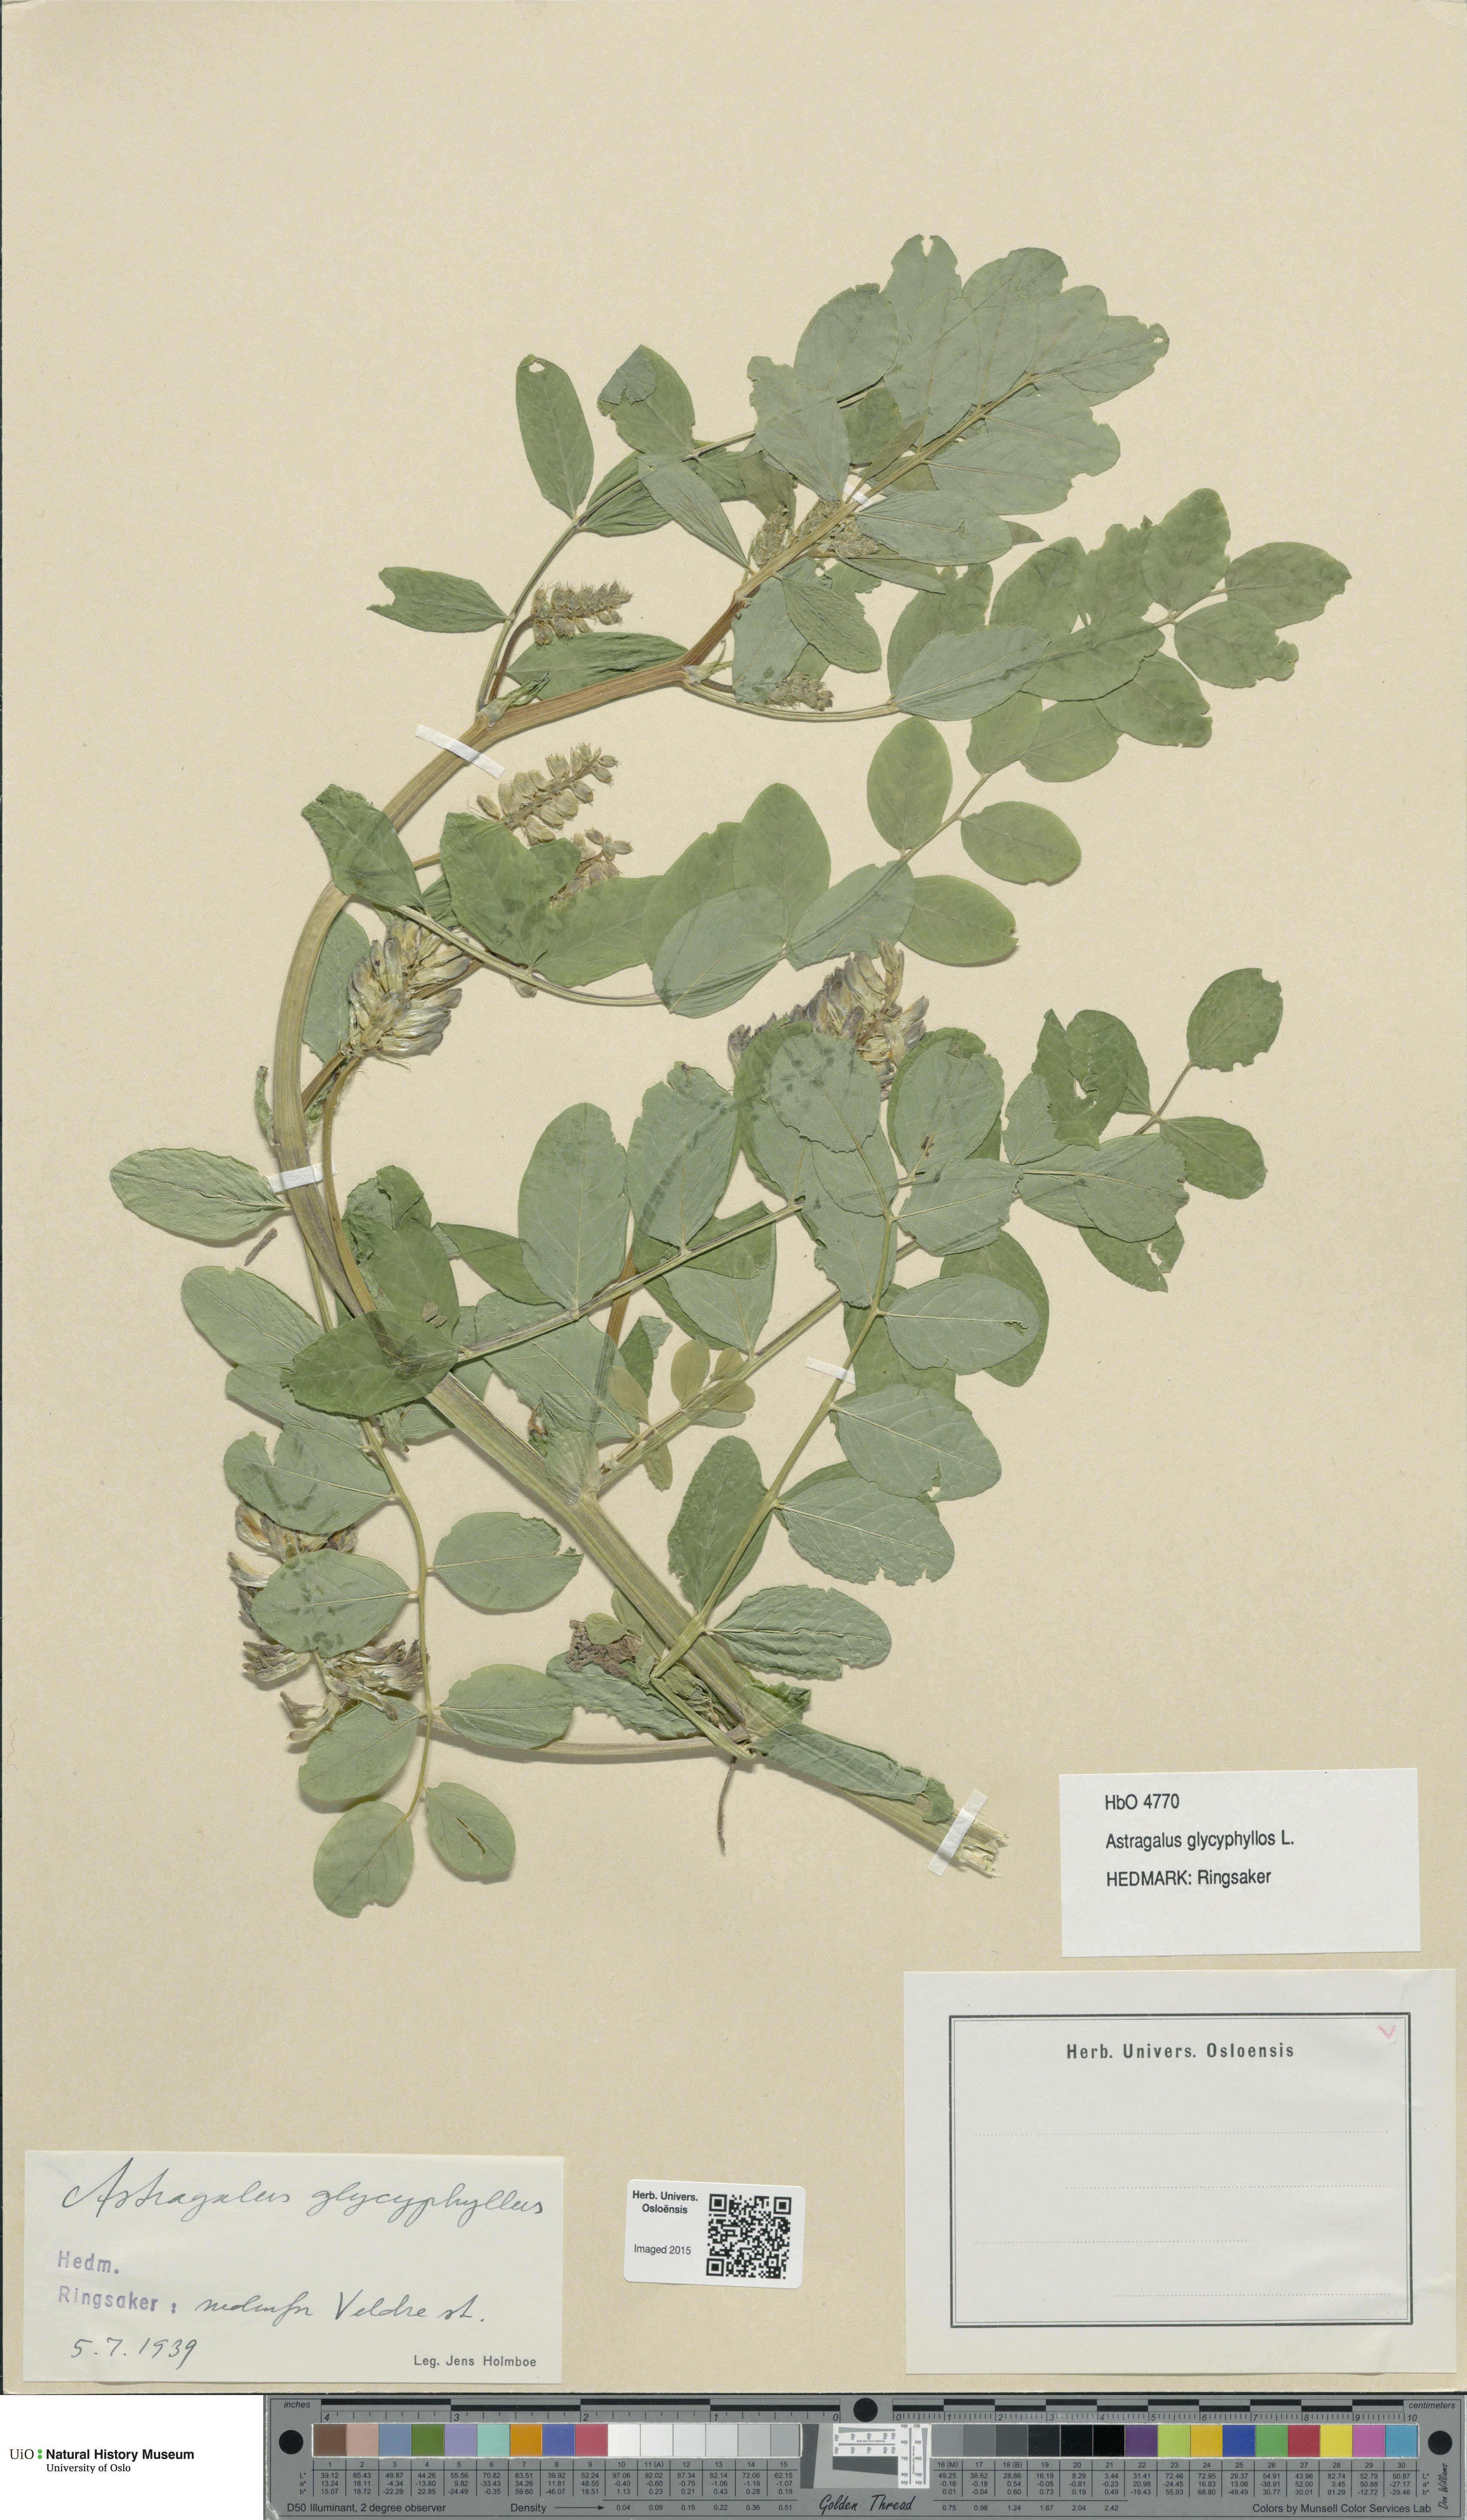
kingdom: Plantae
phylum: Tracheophyta
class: Magnoliopsida
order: Fabales
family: Fabaceae
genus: Astragalus
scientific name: Astragalus glycyphyllos
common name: Wild liquorice
